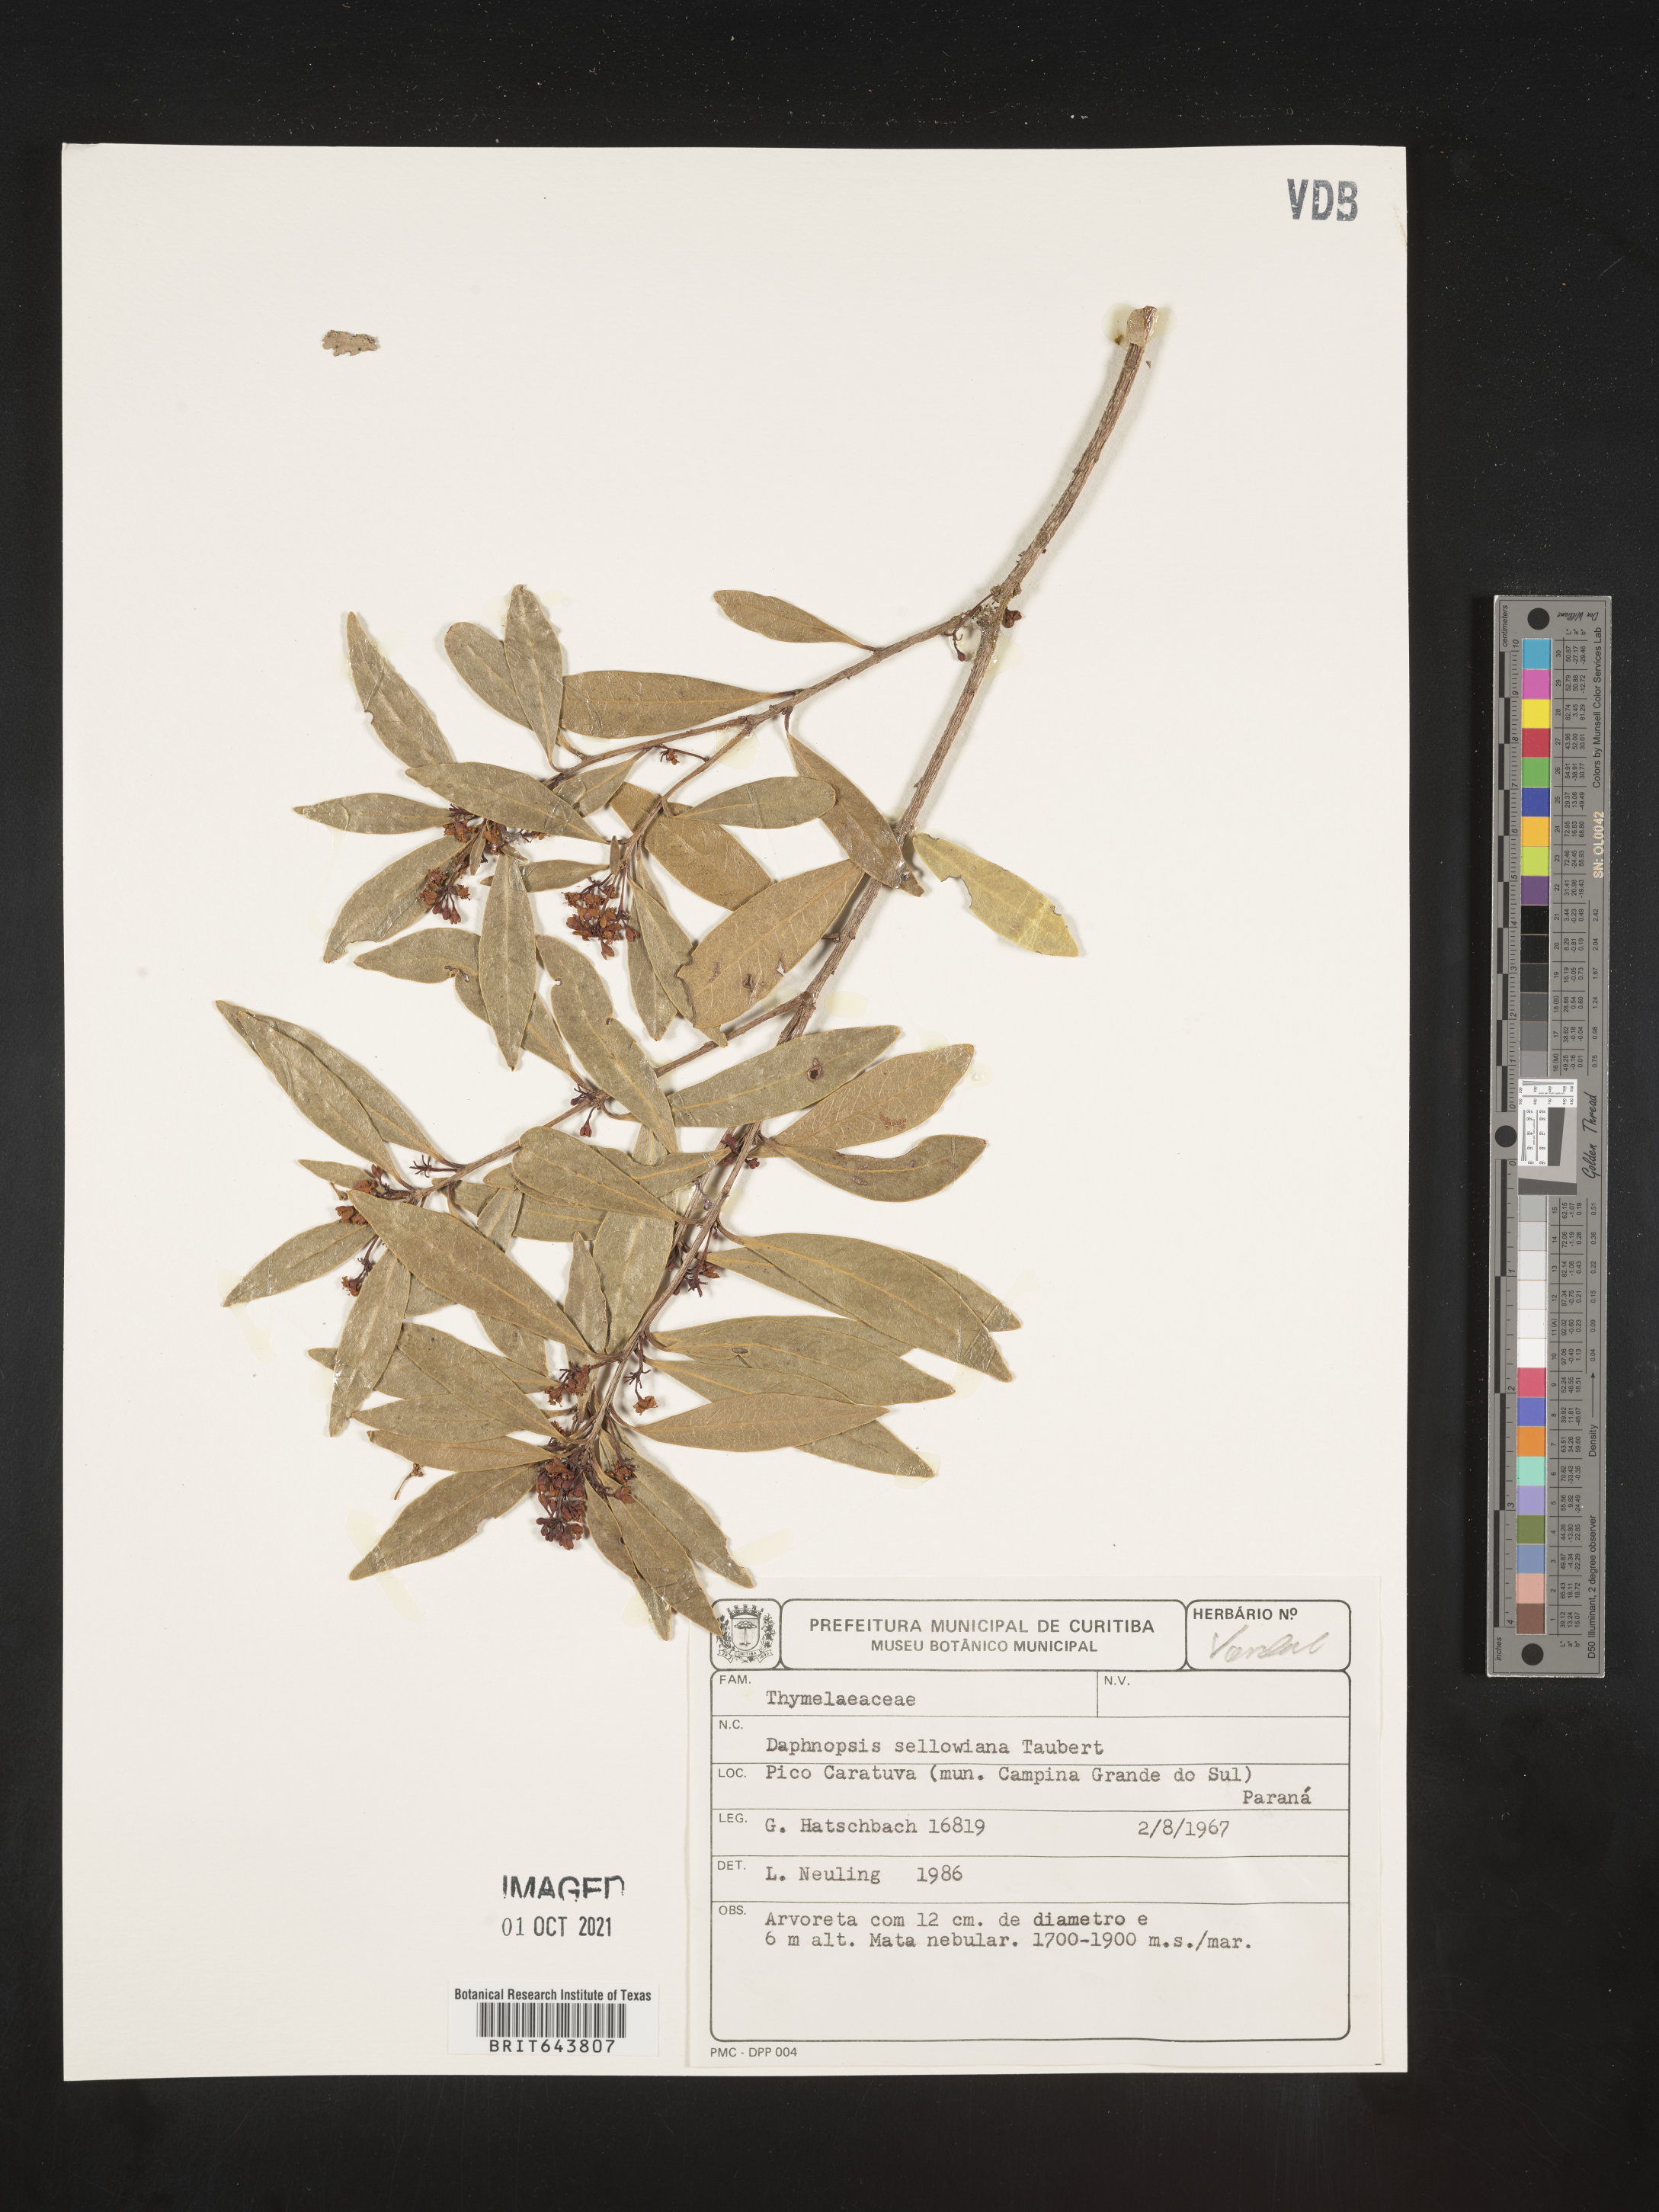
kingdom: Plantae
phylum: Tracheophyta
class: Magnoliopsida
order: Malvales
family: Thymelaeaceae
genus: Daphnopsis
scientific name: Daphnopsis
